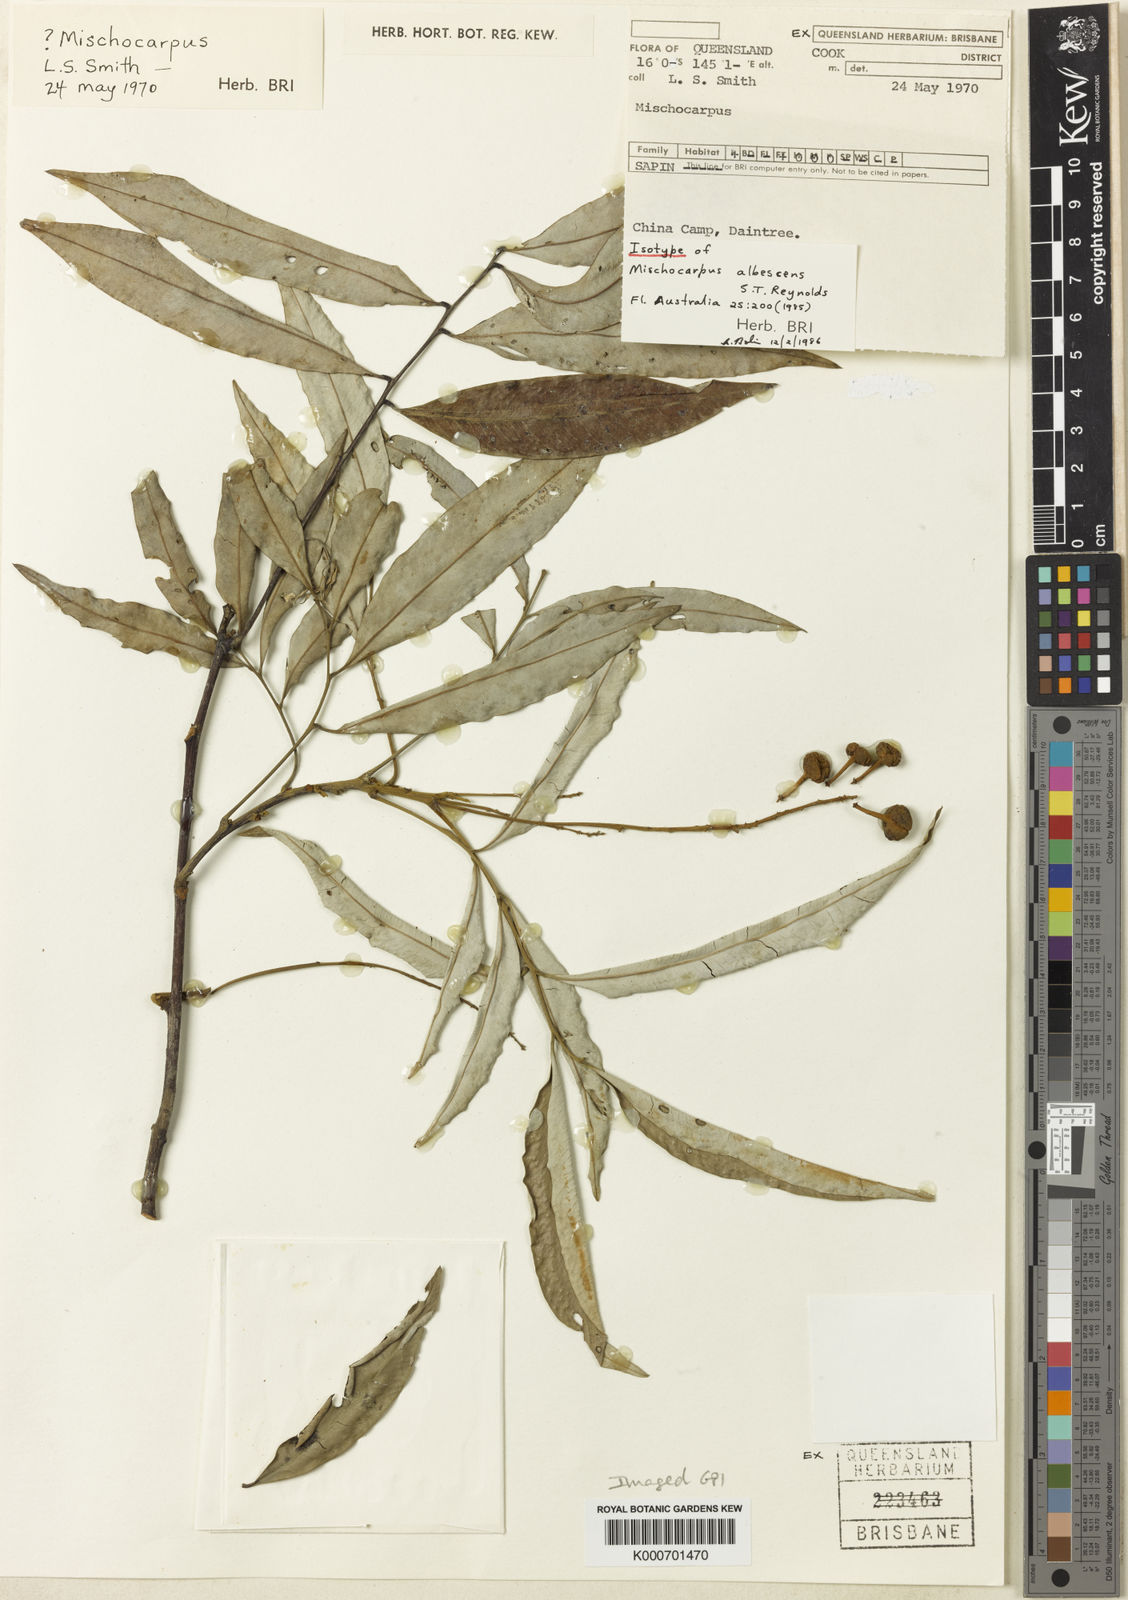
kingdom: Plantae
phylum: Tracheophyta
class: Magnoliopsida
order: Sapindales
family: Sapindaceae
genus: Mischocarpus
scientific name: Mischocarpus albescens
